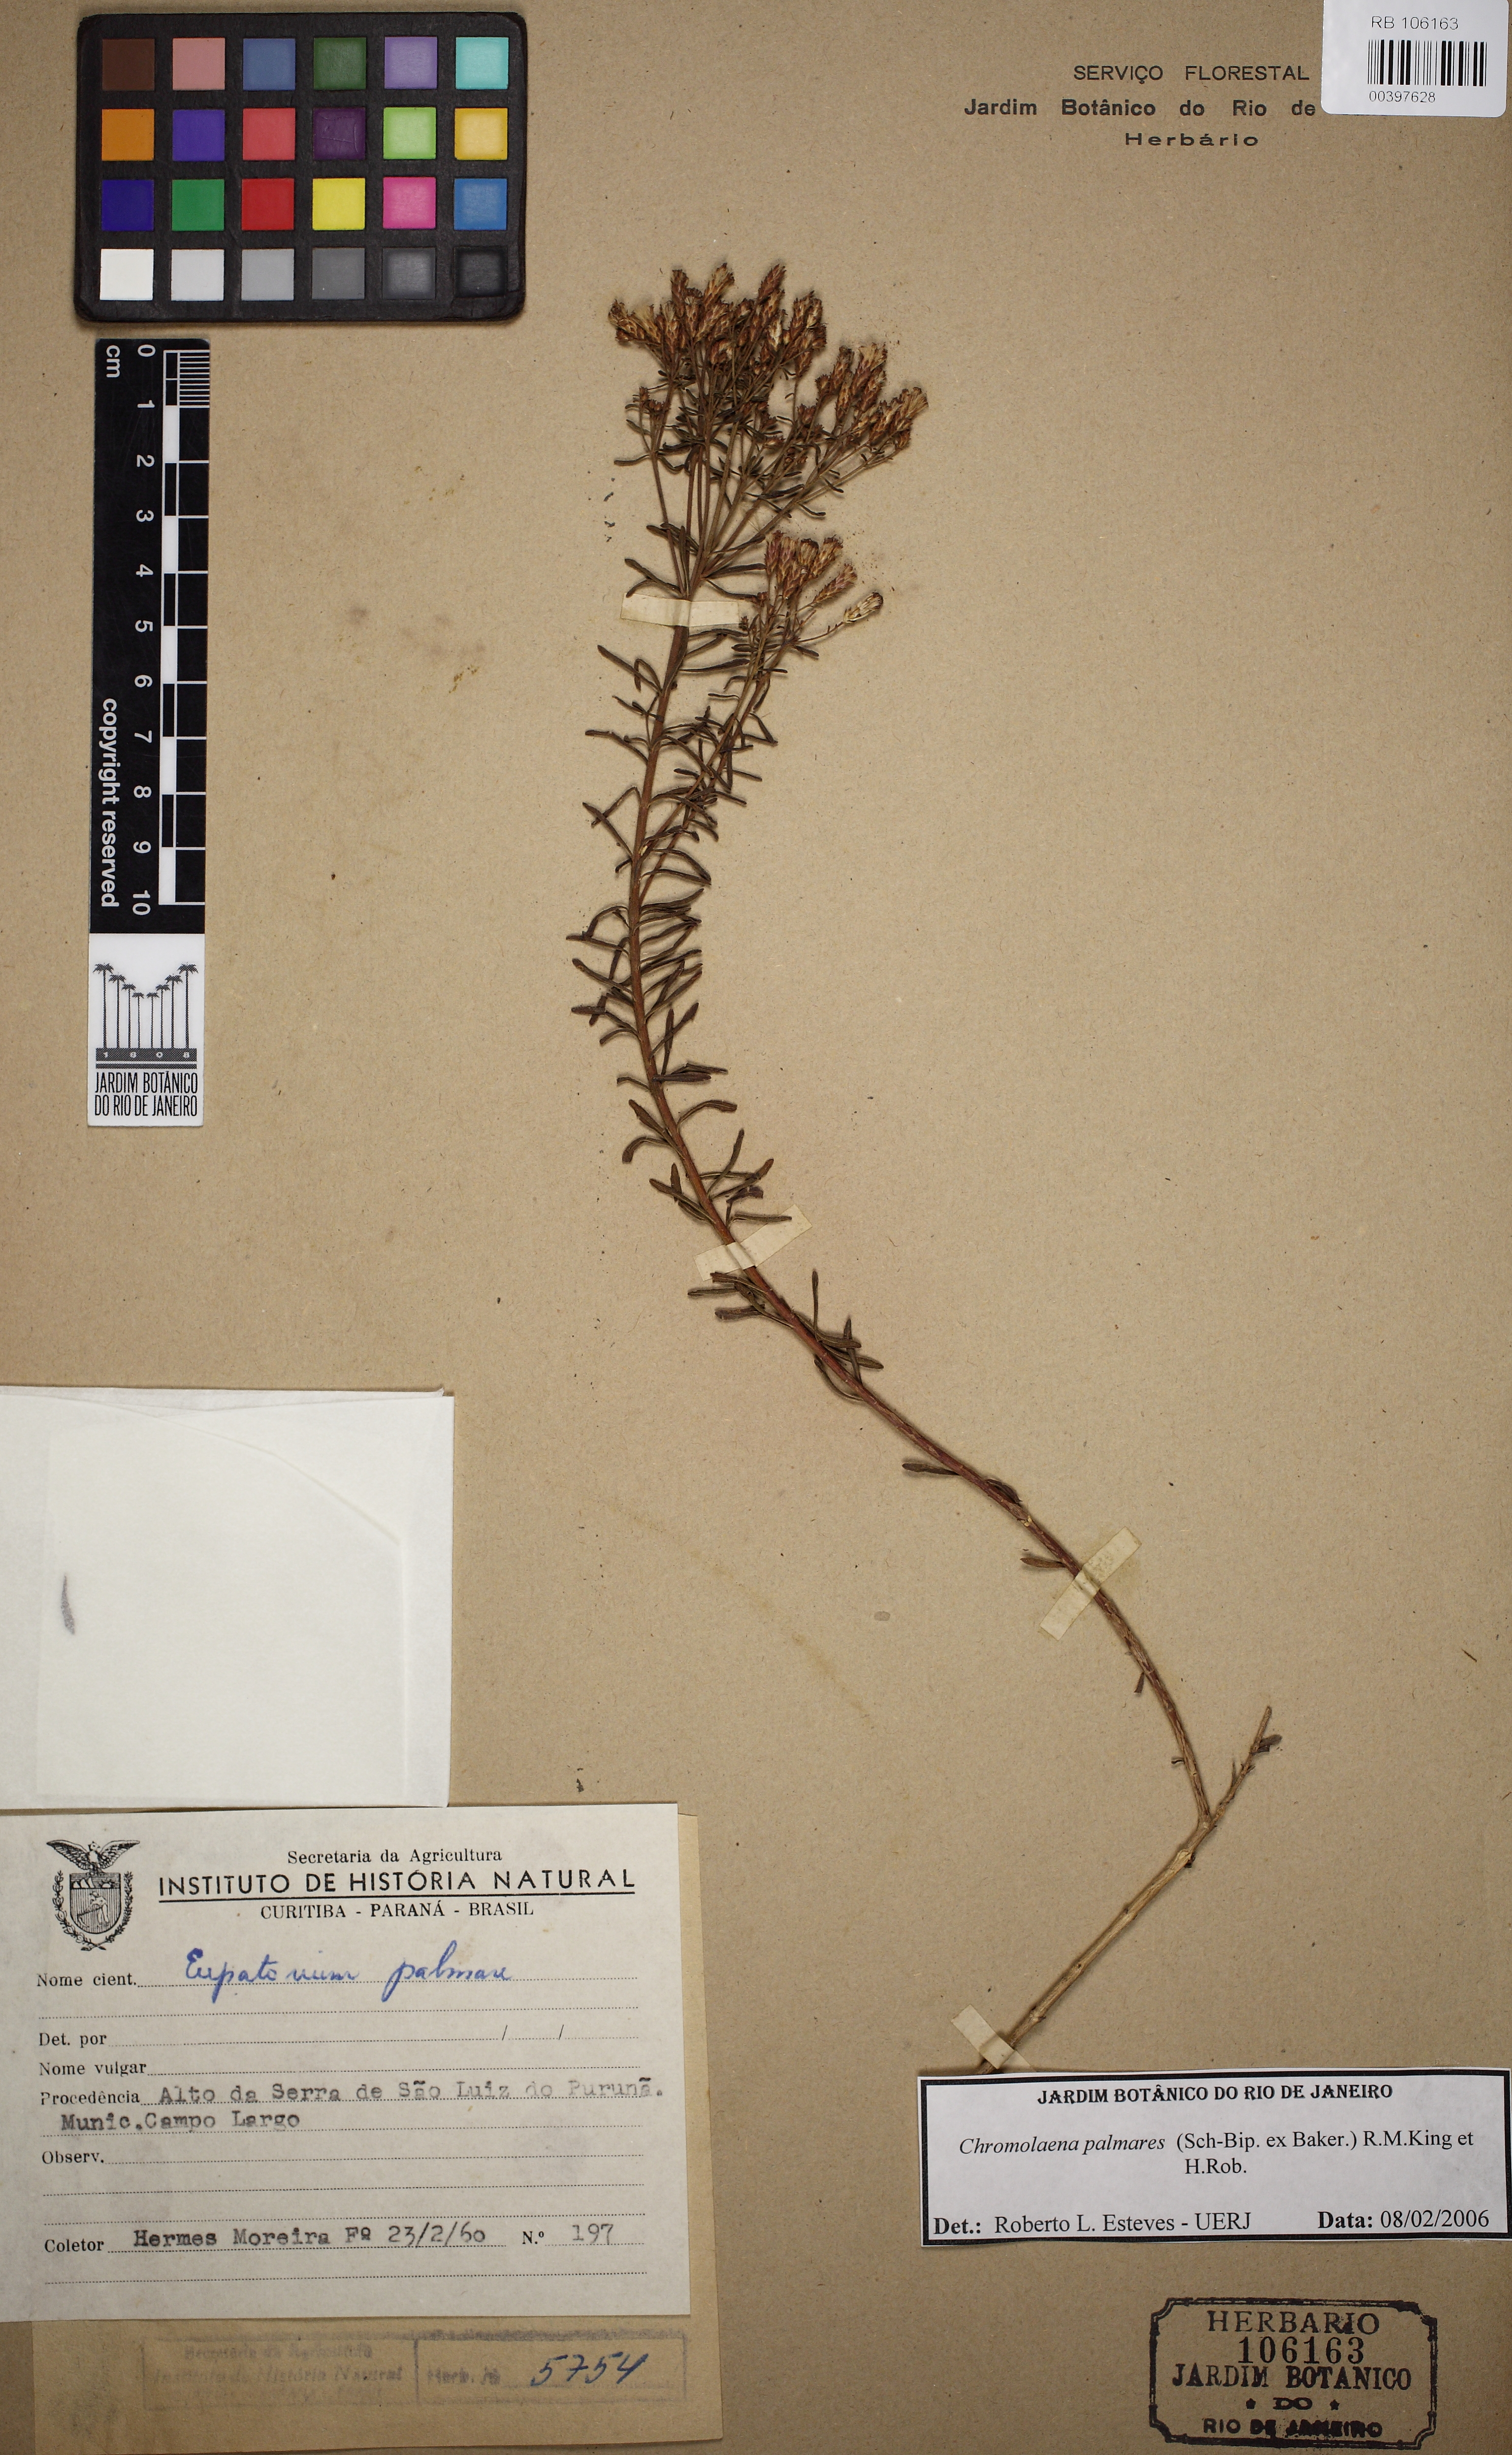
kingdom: Plantae
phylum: Tracheophyta
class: Magnoliopsida
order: Asterales
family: Asteraceae
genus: Chromolaena
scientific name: Chromolaena palmaris
